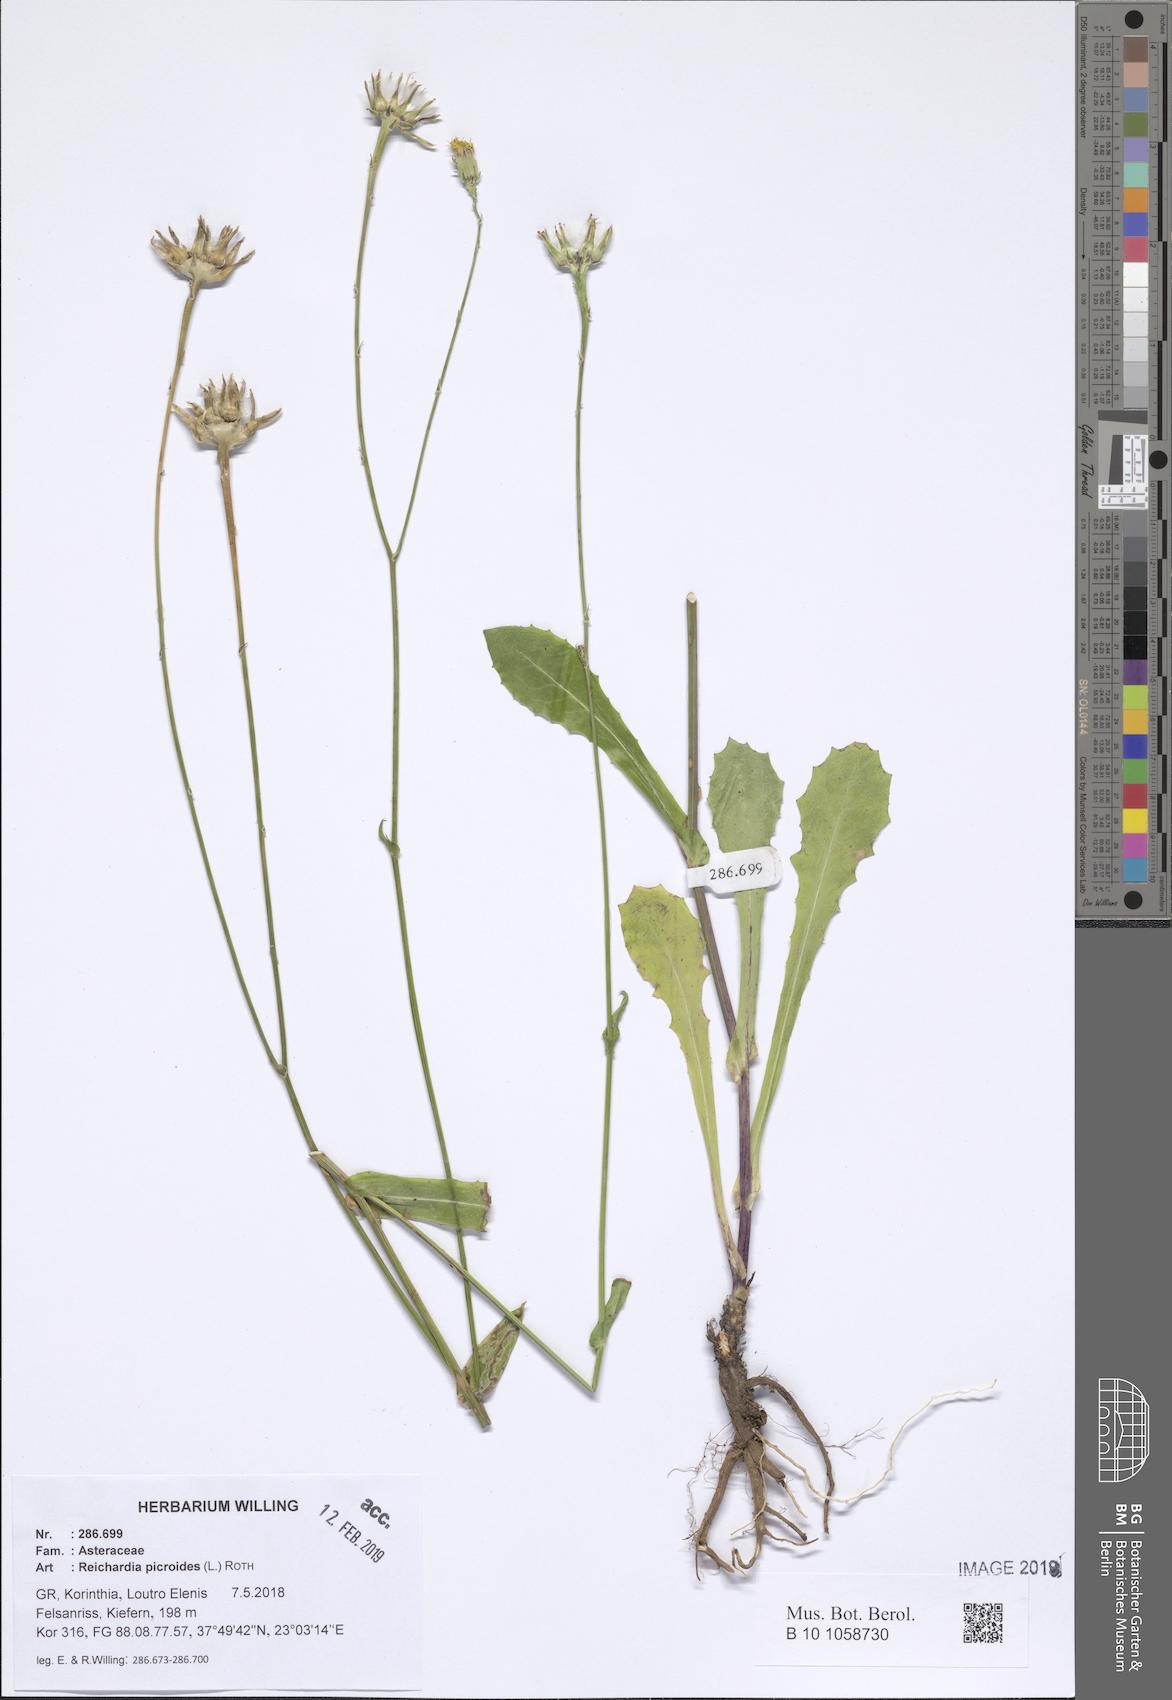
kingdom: Plantae
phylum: Tracheophyta
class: Magnoliopsida
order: Asterales
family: Asteraceae
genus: Reichardia
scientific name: Reichardia picroides
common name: Common brighteyes
